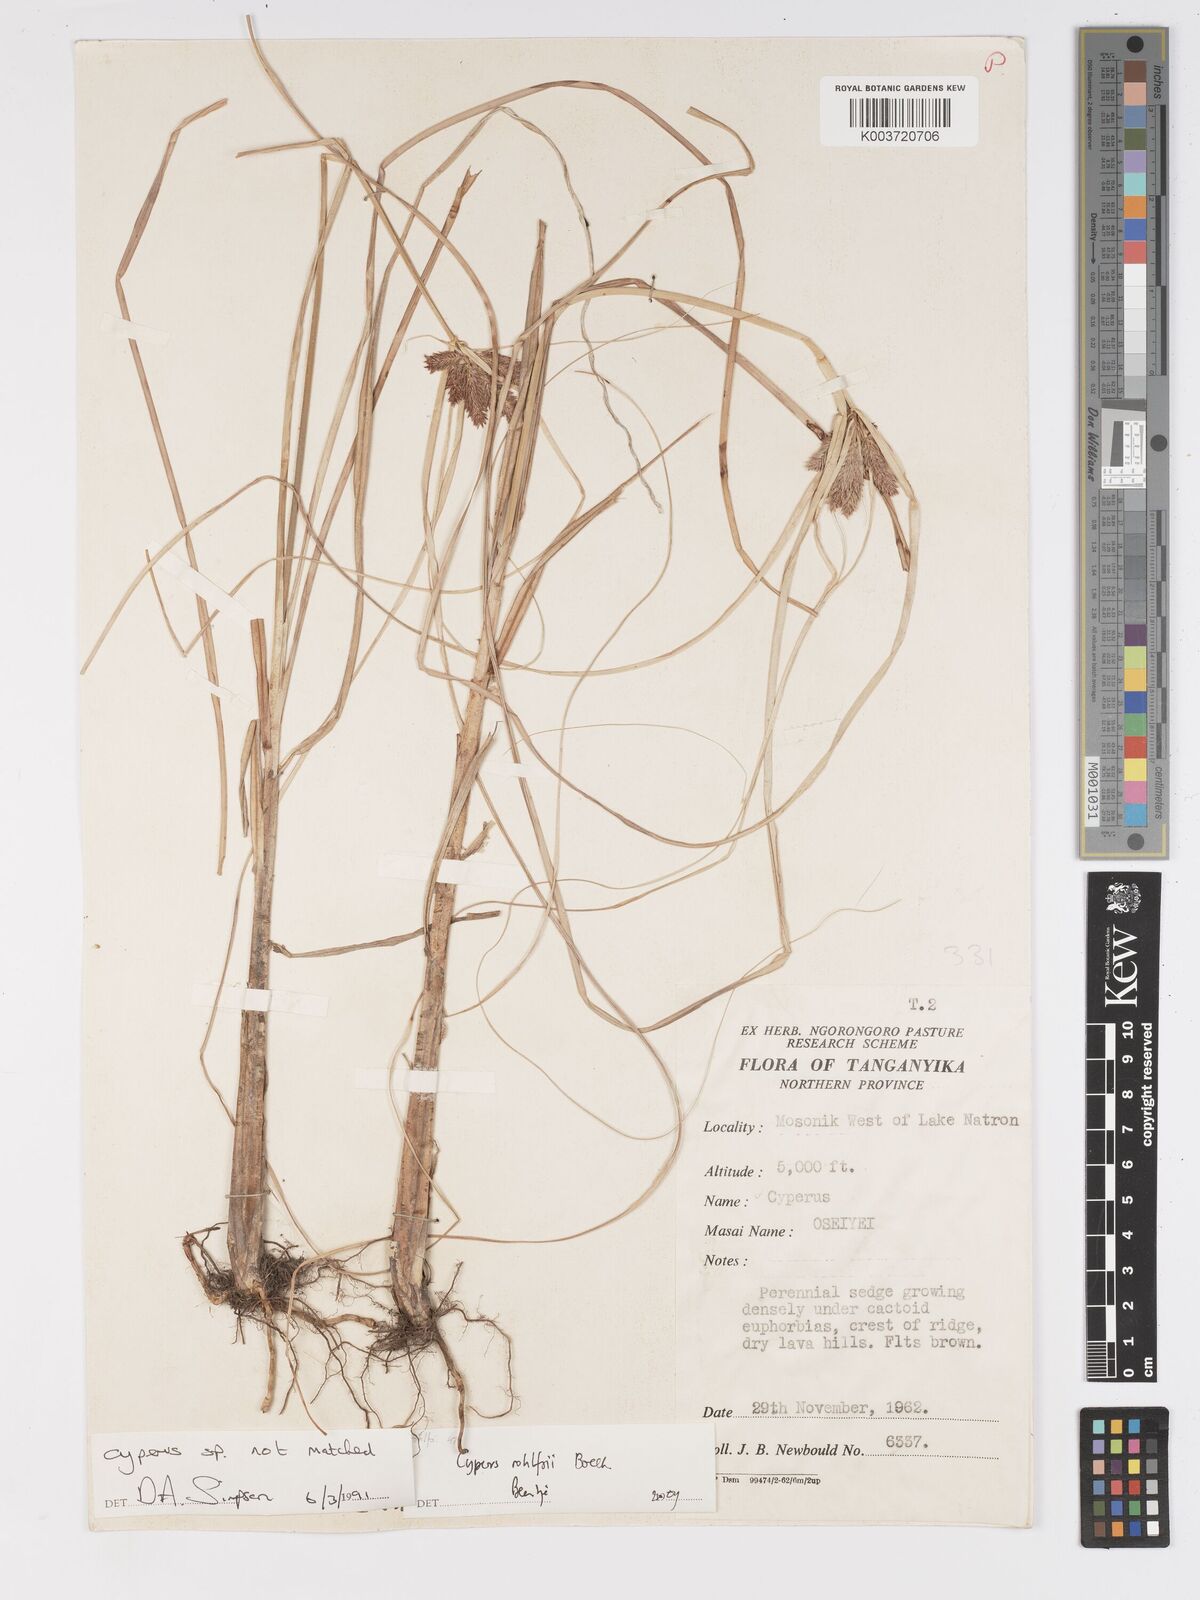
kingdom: Plantae
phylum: Tracheophyta
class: Liliopsida
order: Poales
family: Cyperaceae
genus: Cyperus
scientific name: Cyperus rohlfsii
